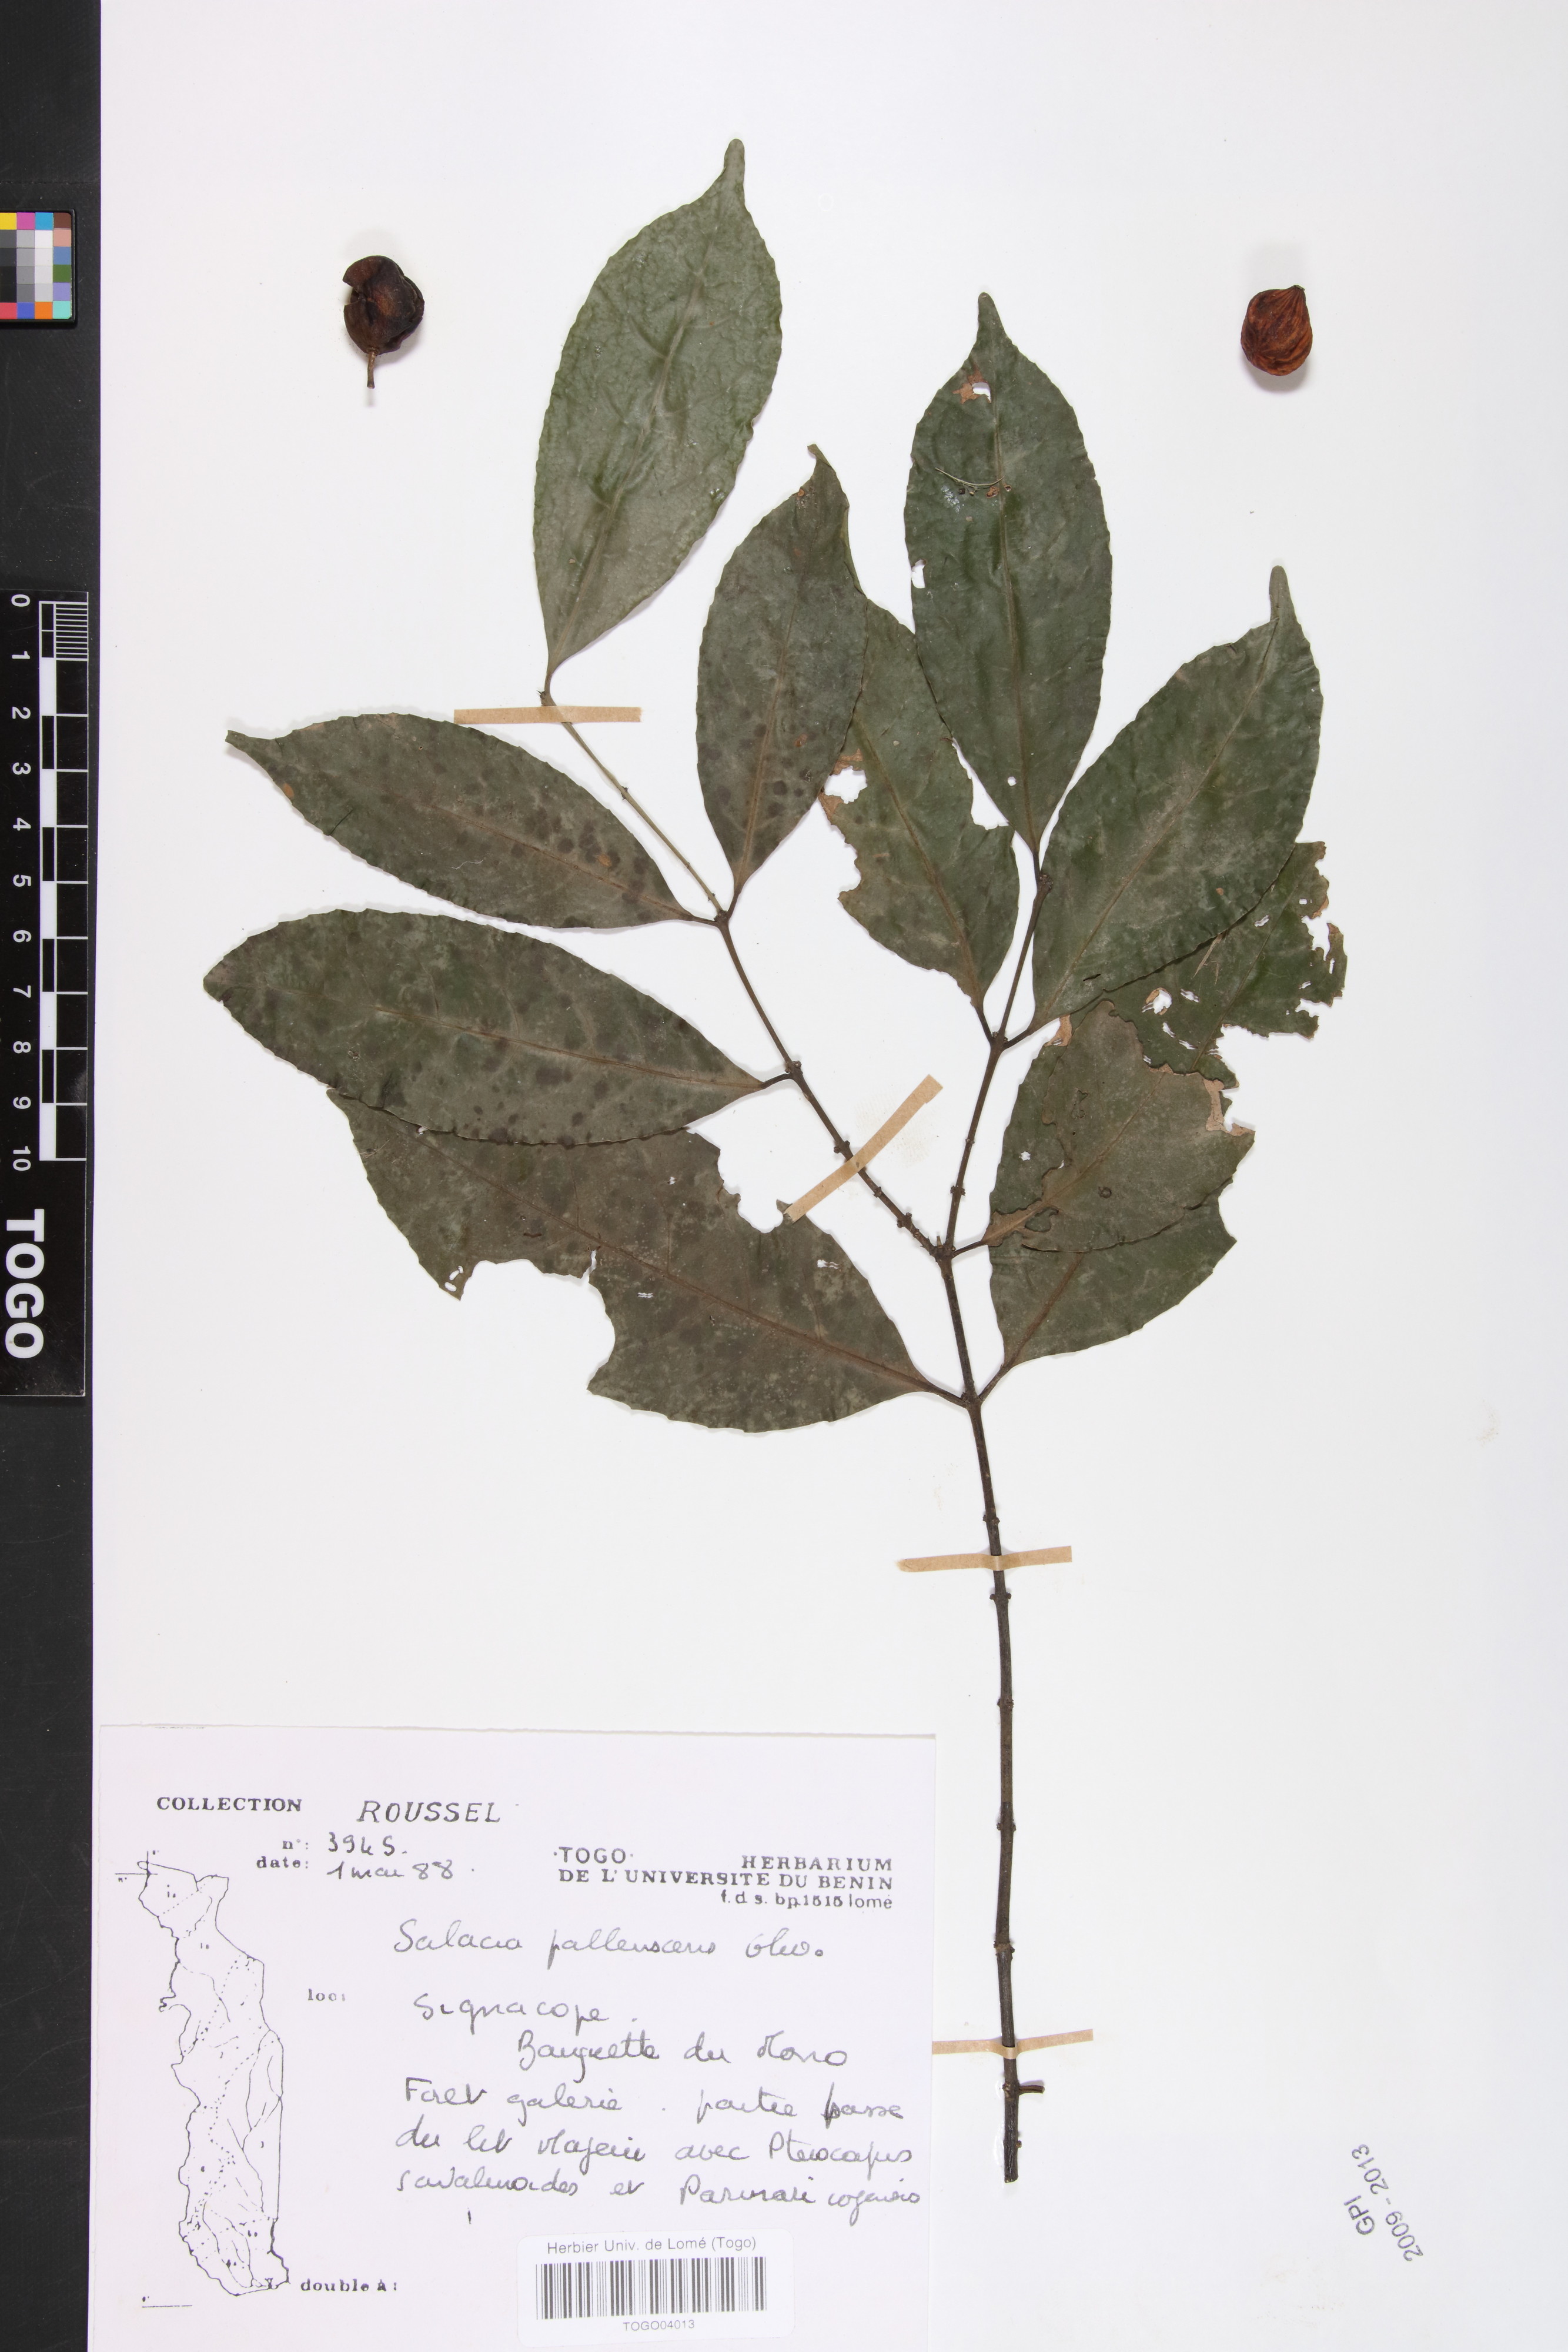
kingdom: Plantae
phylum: Tracheophyta
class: Magnoliopsida
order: Celastrales
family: Celastraceae
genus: Salacia
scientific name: Salacia pallescens
